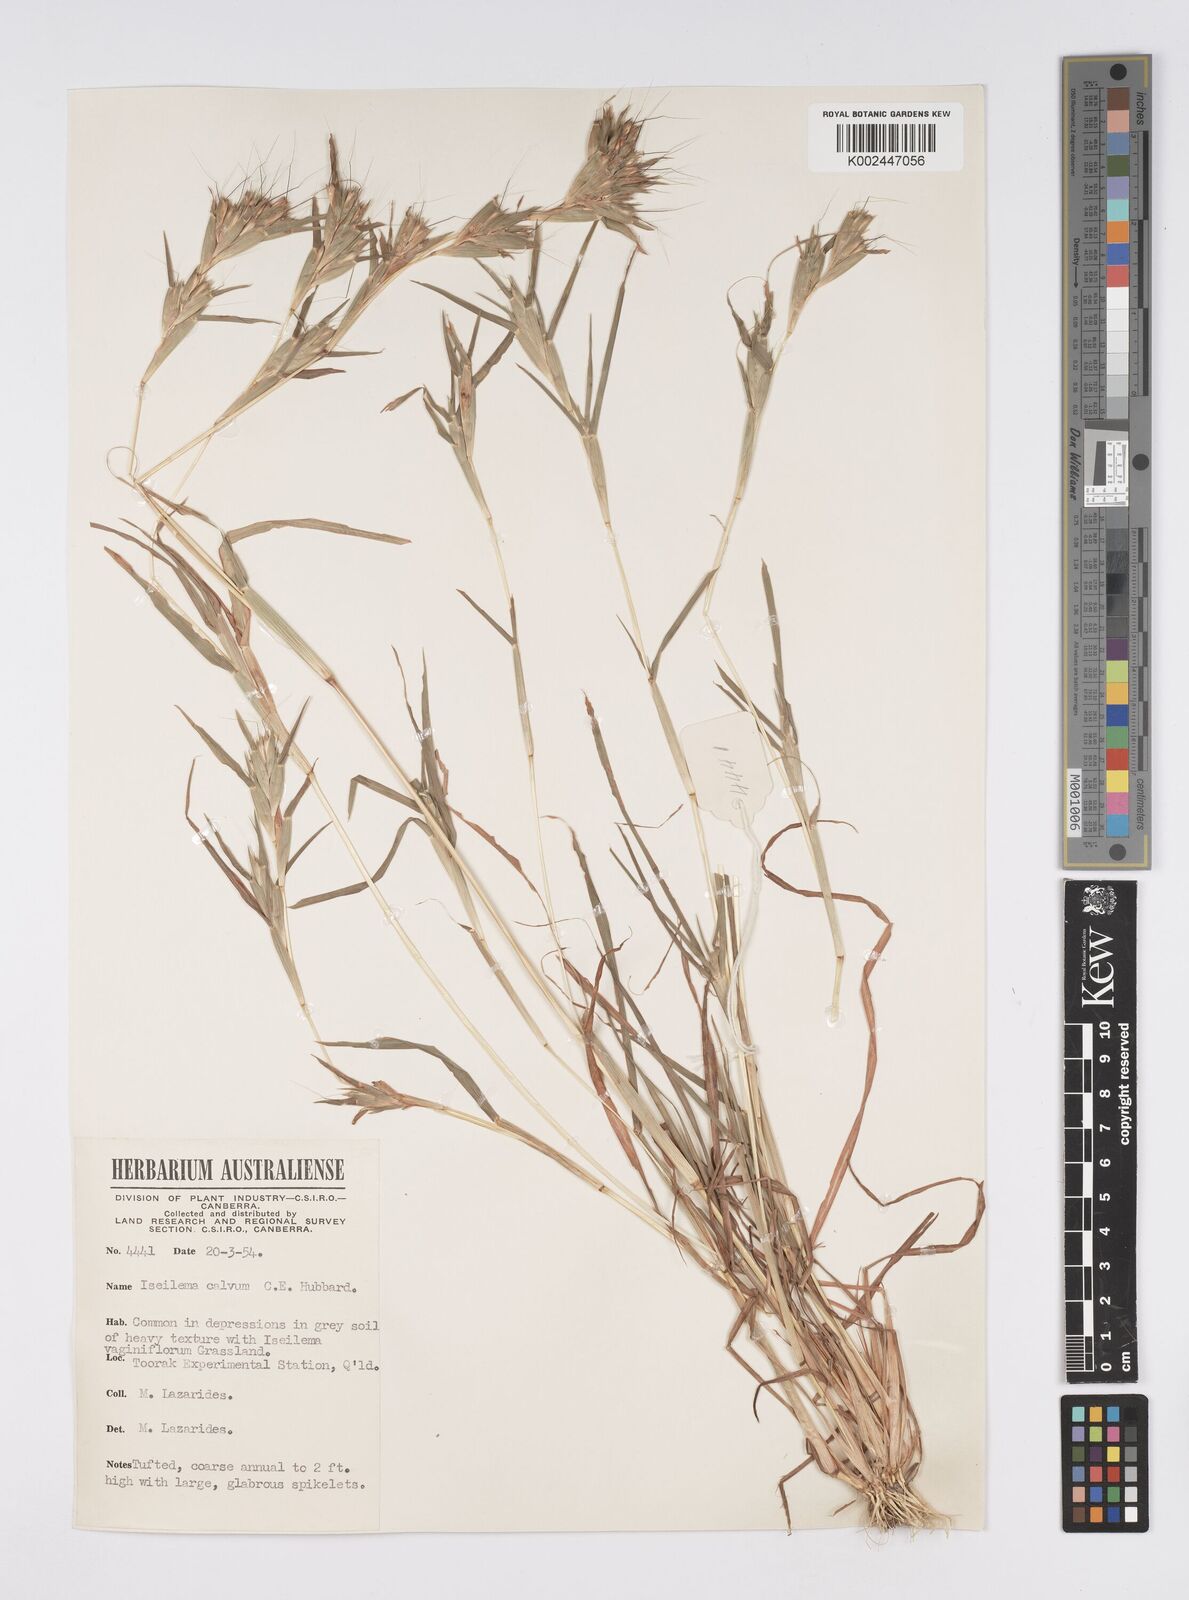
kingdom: Plantae
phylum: Tracheophyta
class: Liliopsida
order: Poales
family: Poaceae
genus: Iseilema
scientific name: Iseilema calvum
